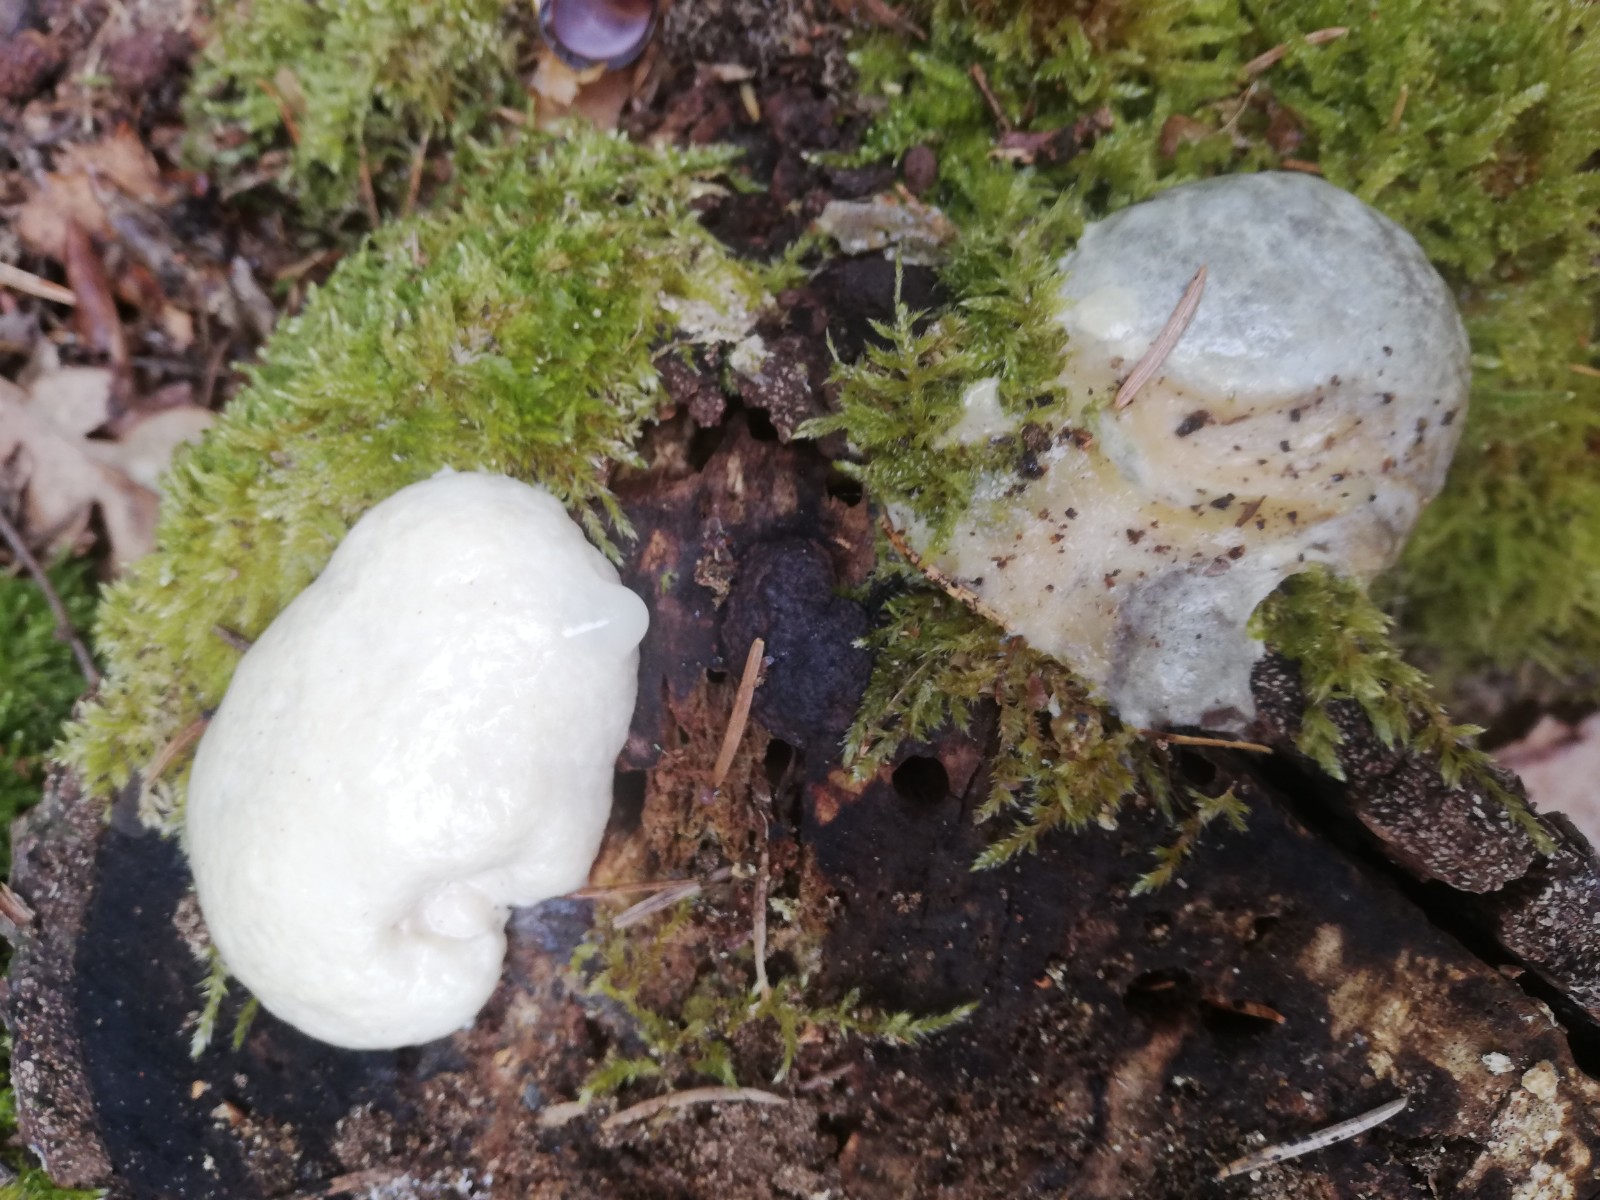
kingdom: Protozoa
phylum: Mycetozoa
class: Myxomycetes
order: Cribrariales
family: Tubiferaceae
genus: Reticularia
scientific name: Reticularia lycoperdon
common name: skinnende støvpude
